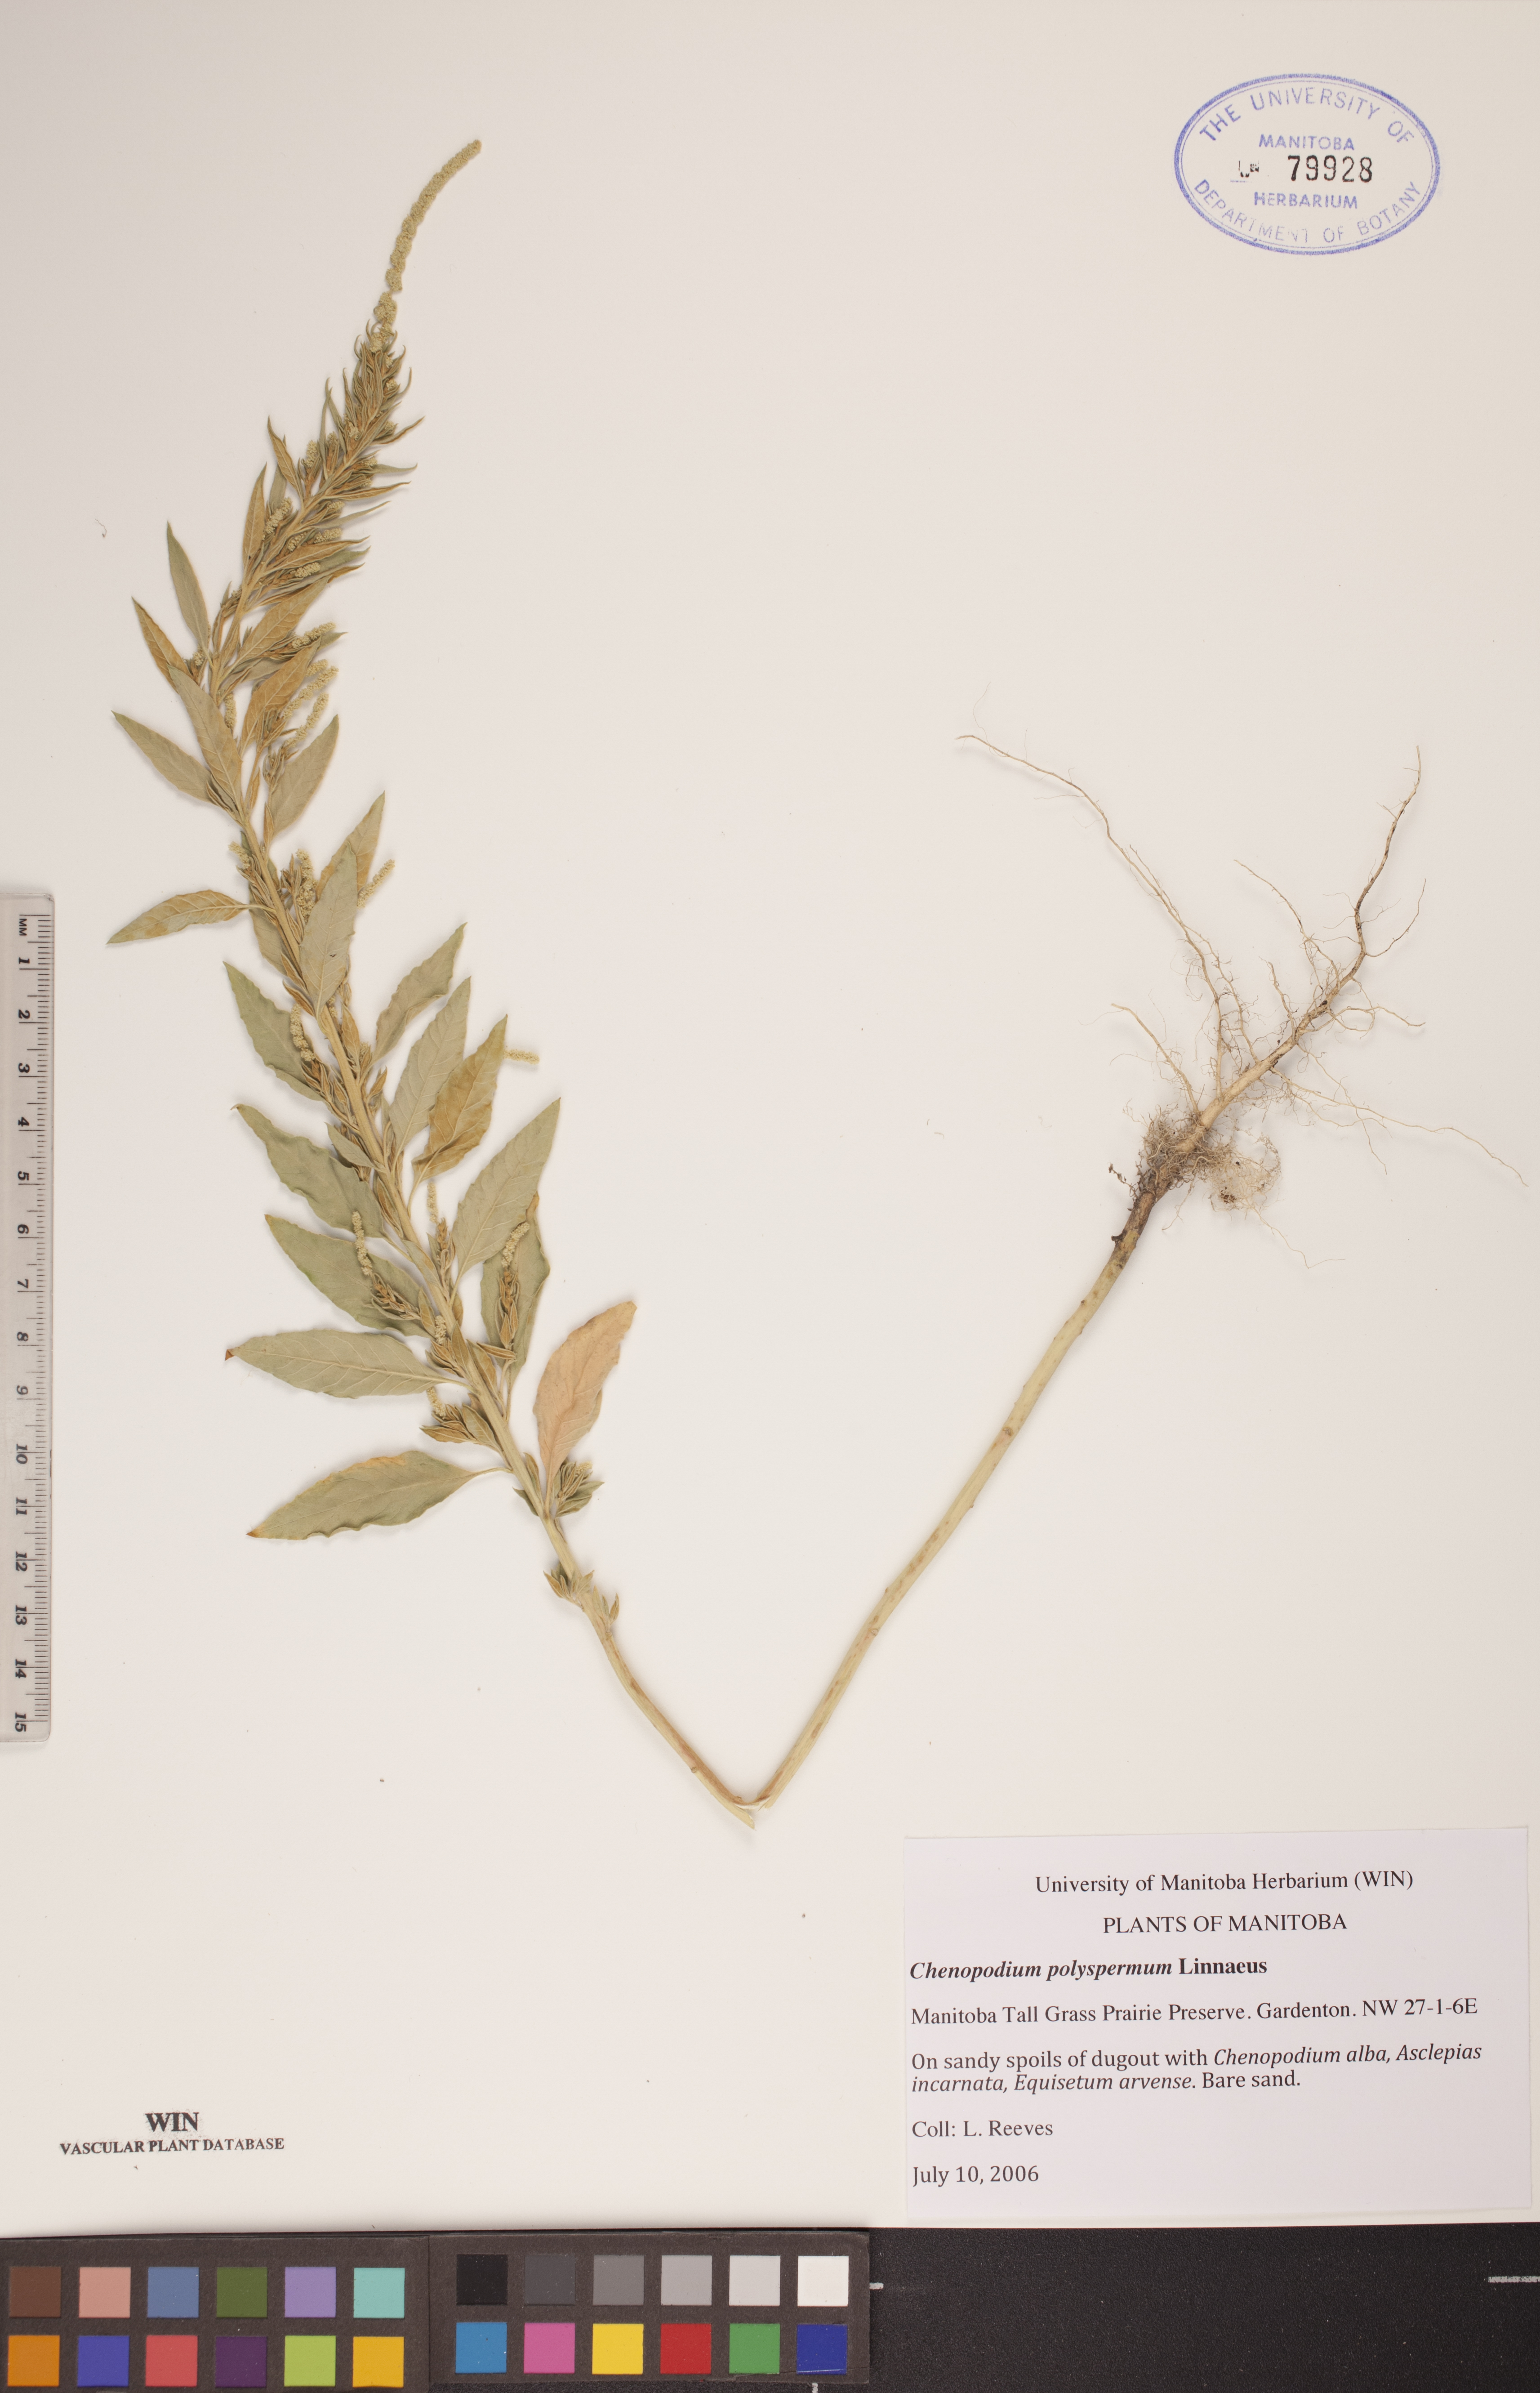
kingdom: Plantae
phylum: Tracheophyta
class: Magnoliopsida
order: Caryophyllales
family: Amaranthaceae
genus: Lipandra
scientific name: Lipandra polysperma
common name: Many-seed goosefoot
